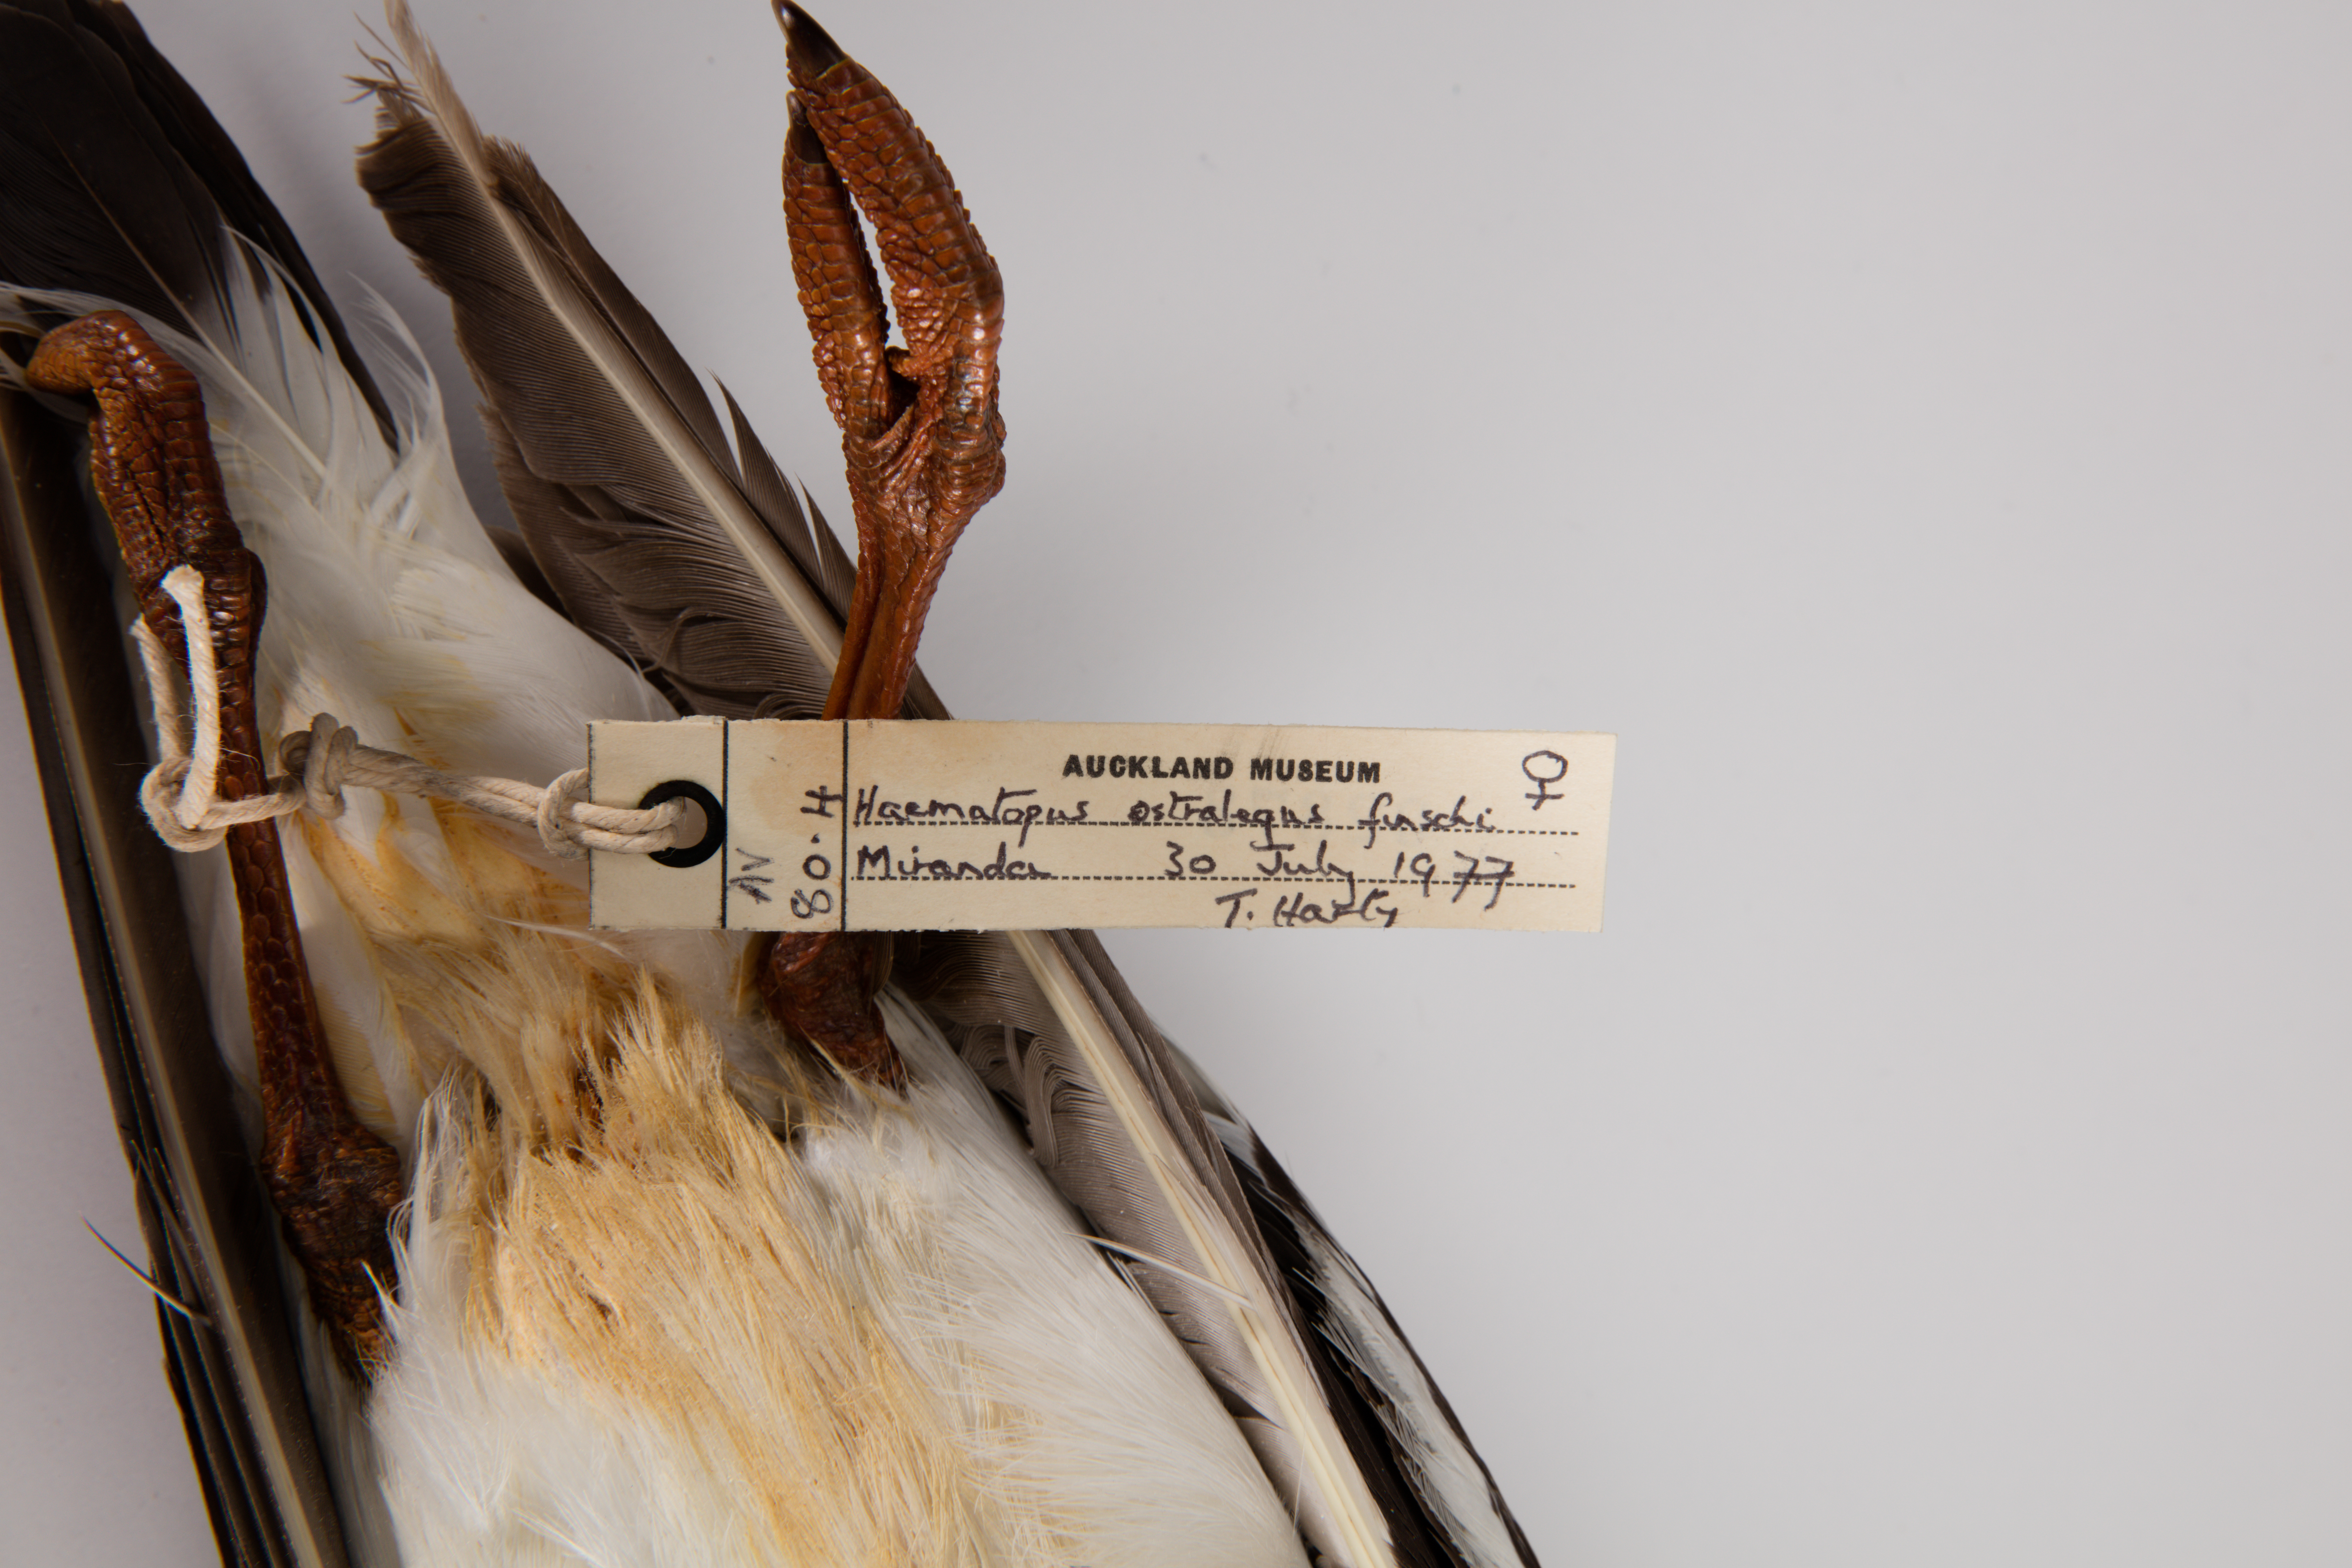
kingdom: Animalia
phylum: Chordata
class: Aves
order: Charadriiformes
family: Haematopodidae
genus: Haematopus
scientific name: Haematopus finschi
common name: South island oystercatcher
